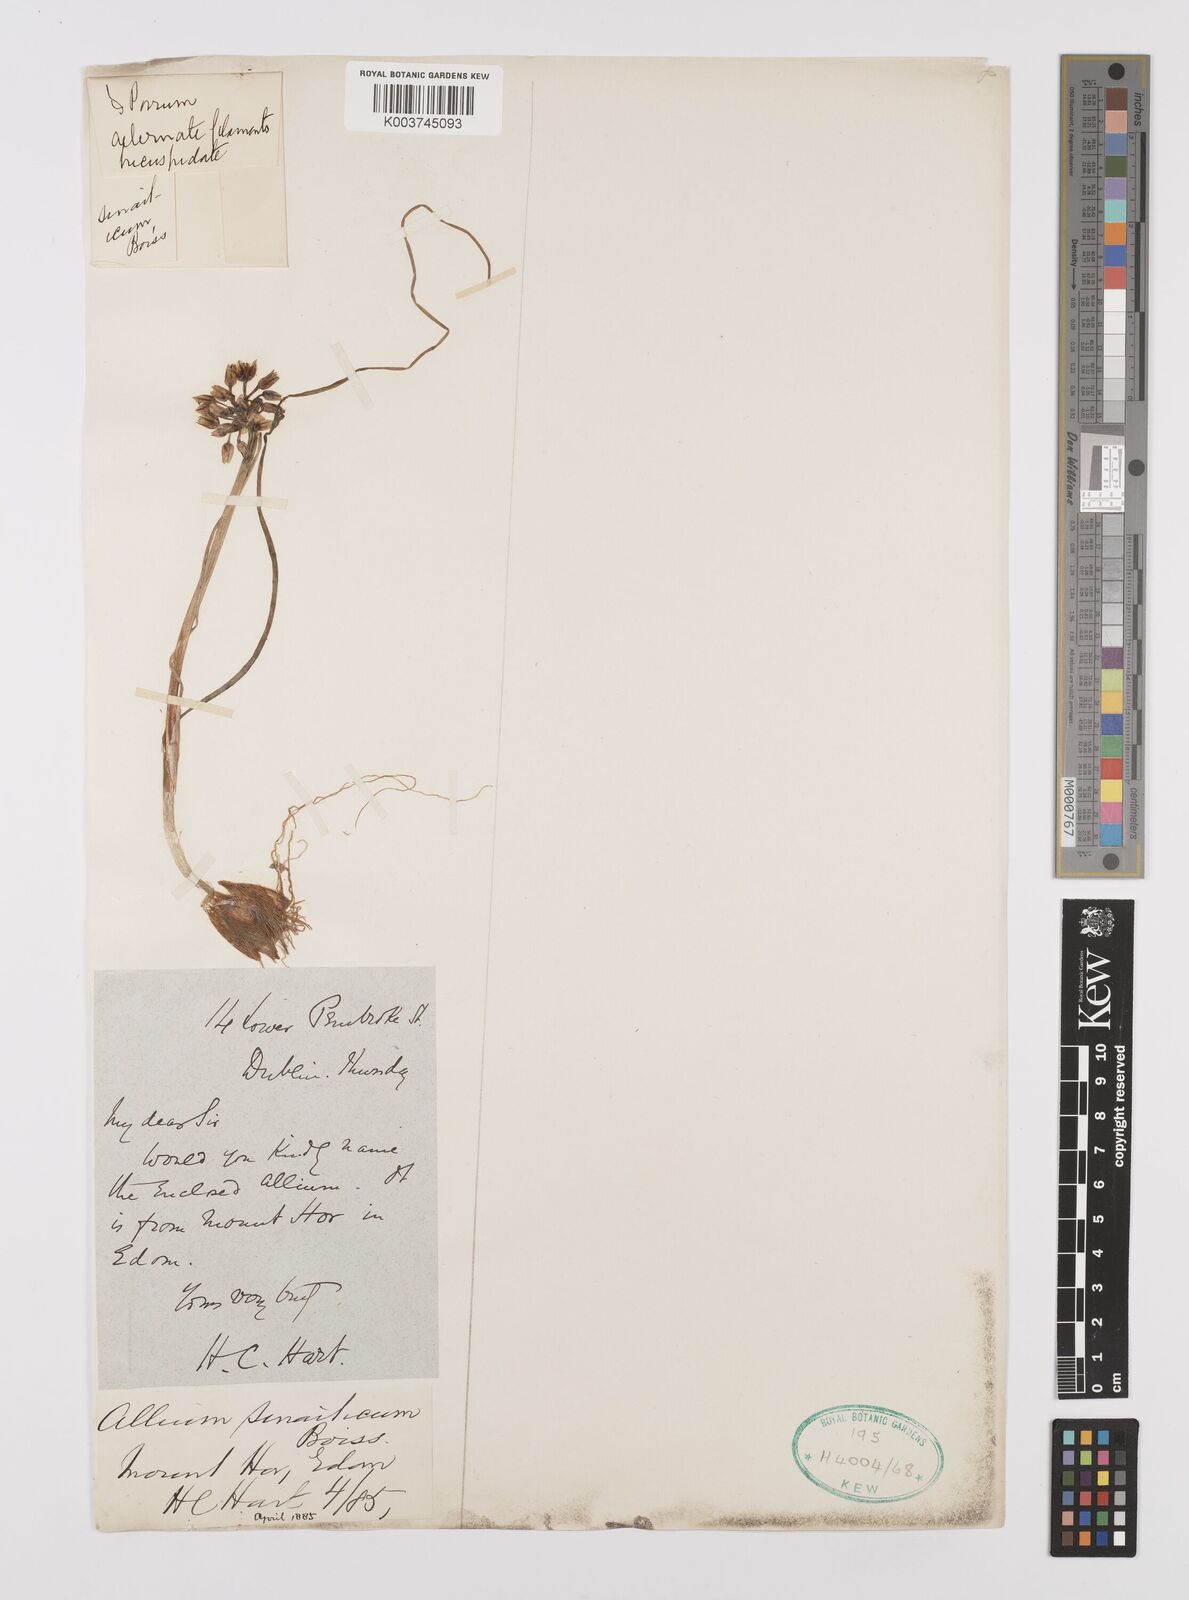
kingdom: Plantae
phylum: Tracheophyta
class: Liliopsida
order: Asparagales
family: Amaryllidaceae
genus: Allium
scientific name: Allium sinaiticum
